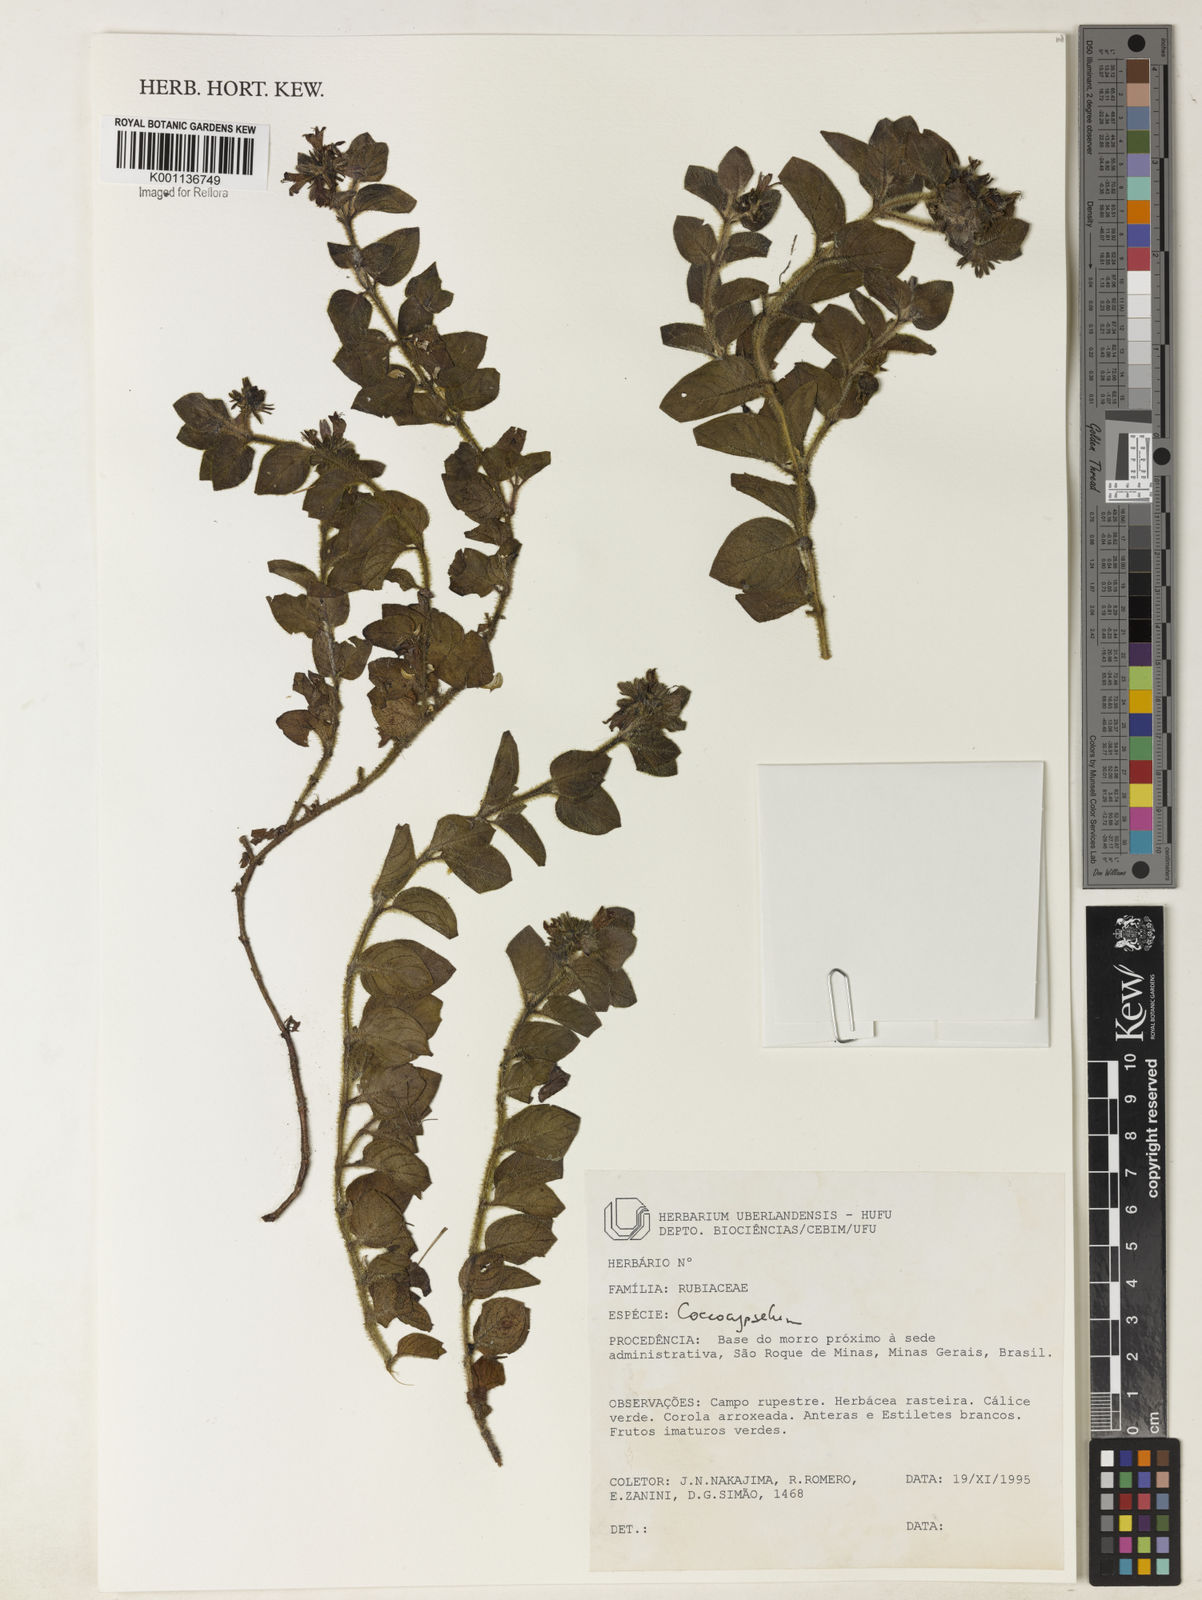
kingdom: Plantae
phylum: Tracheophyta
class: Magnoliopsida
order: Gentianales
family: Rubiaceae
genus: Coccocypselum
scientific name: Coccocypselum
